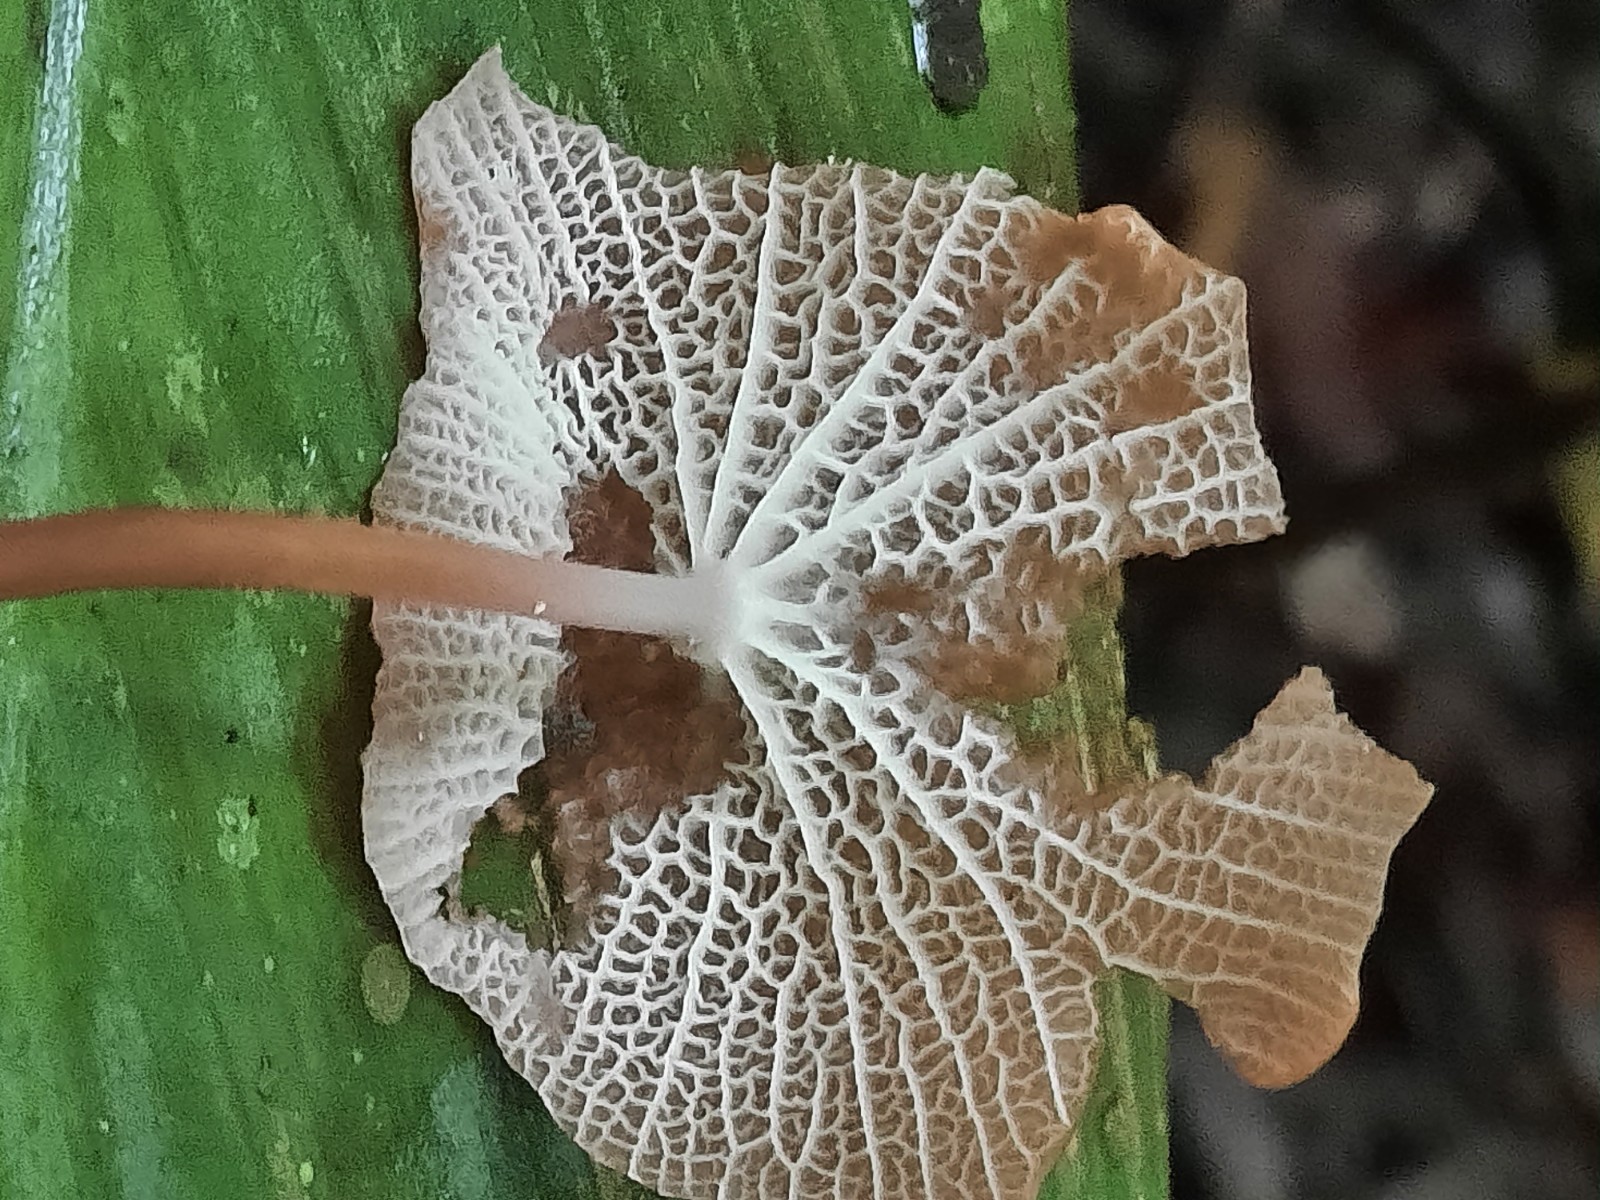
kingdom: Fungi
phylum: Basidiomycota
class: Agaricomycetes
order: Agaricales
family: Marasmiaceae
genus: Marasmius
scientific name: Marasmius cladophyllus
